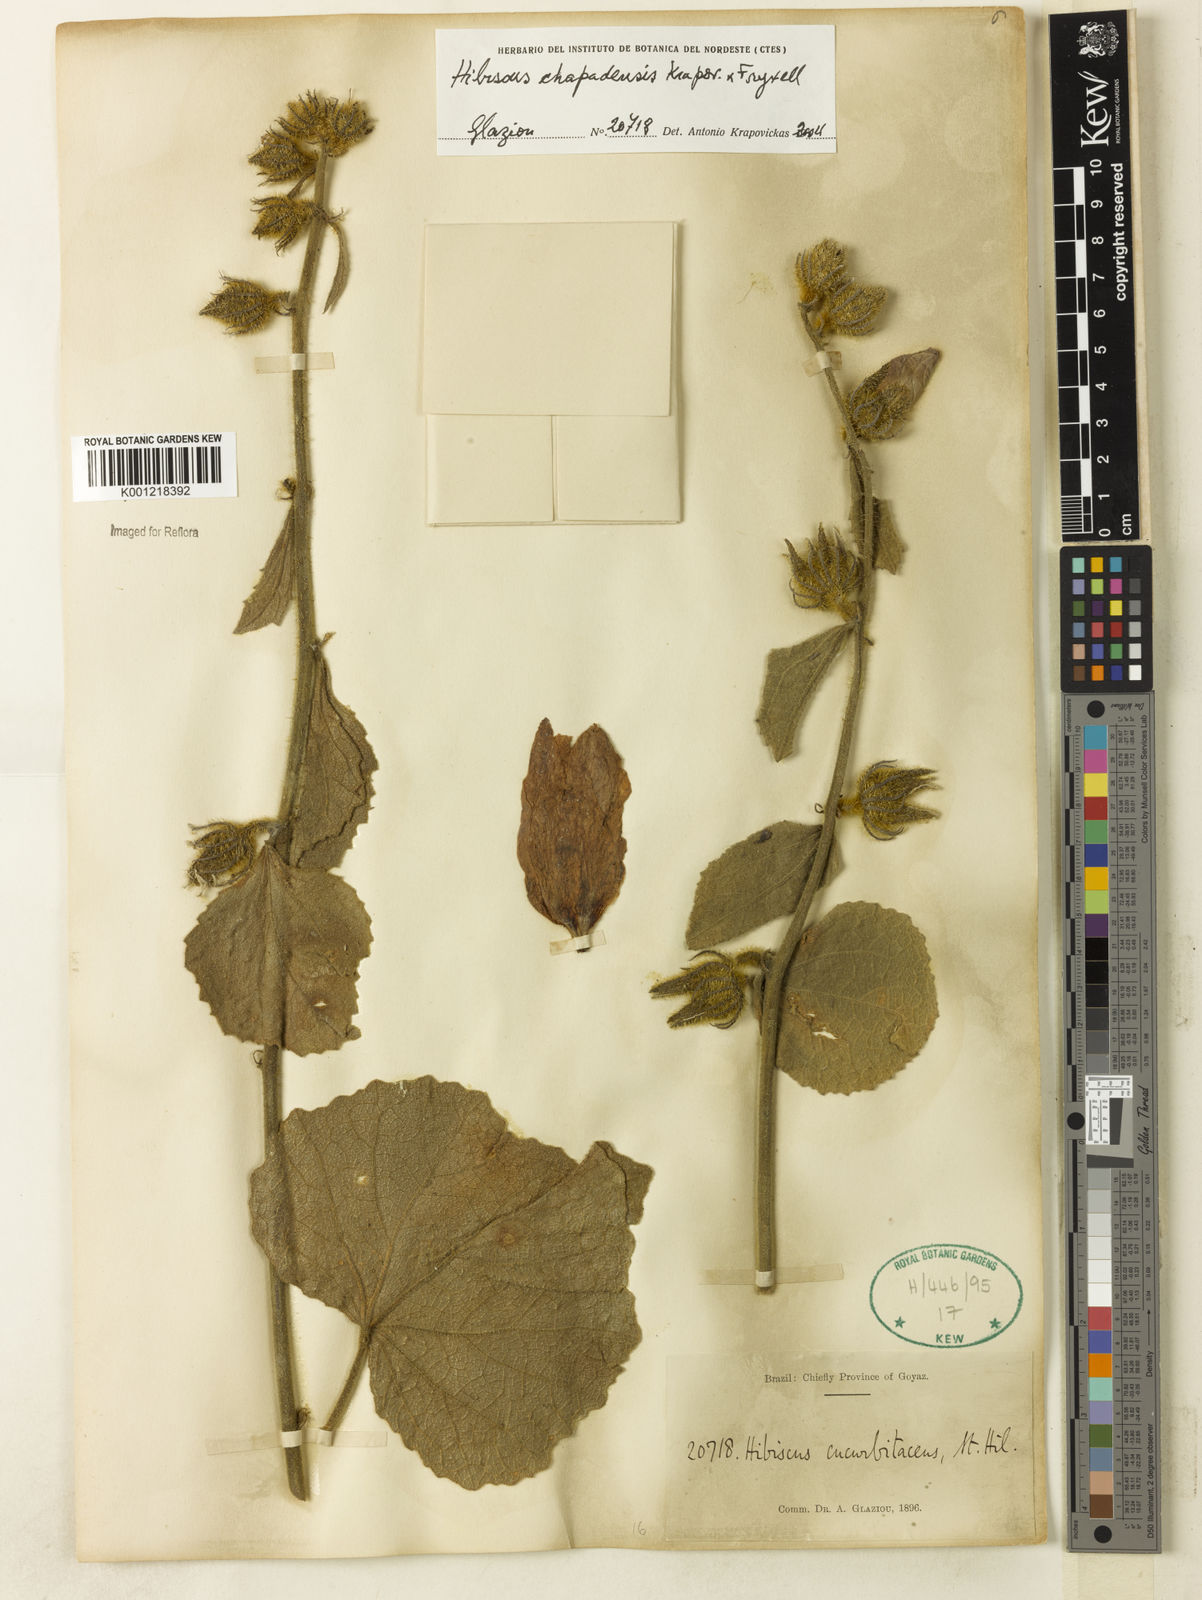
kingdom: Plantae
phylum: Tracheophyta
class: Magnoliopsida
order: Malvales
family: Malvaceae
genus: Hibiscus
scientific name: Hibiscus chapadensis
